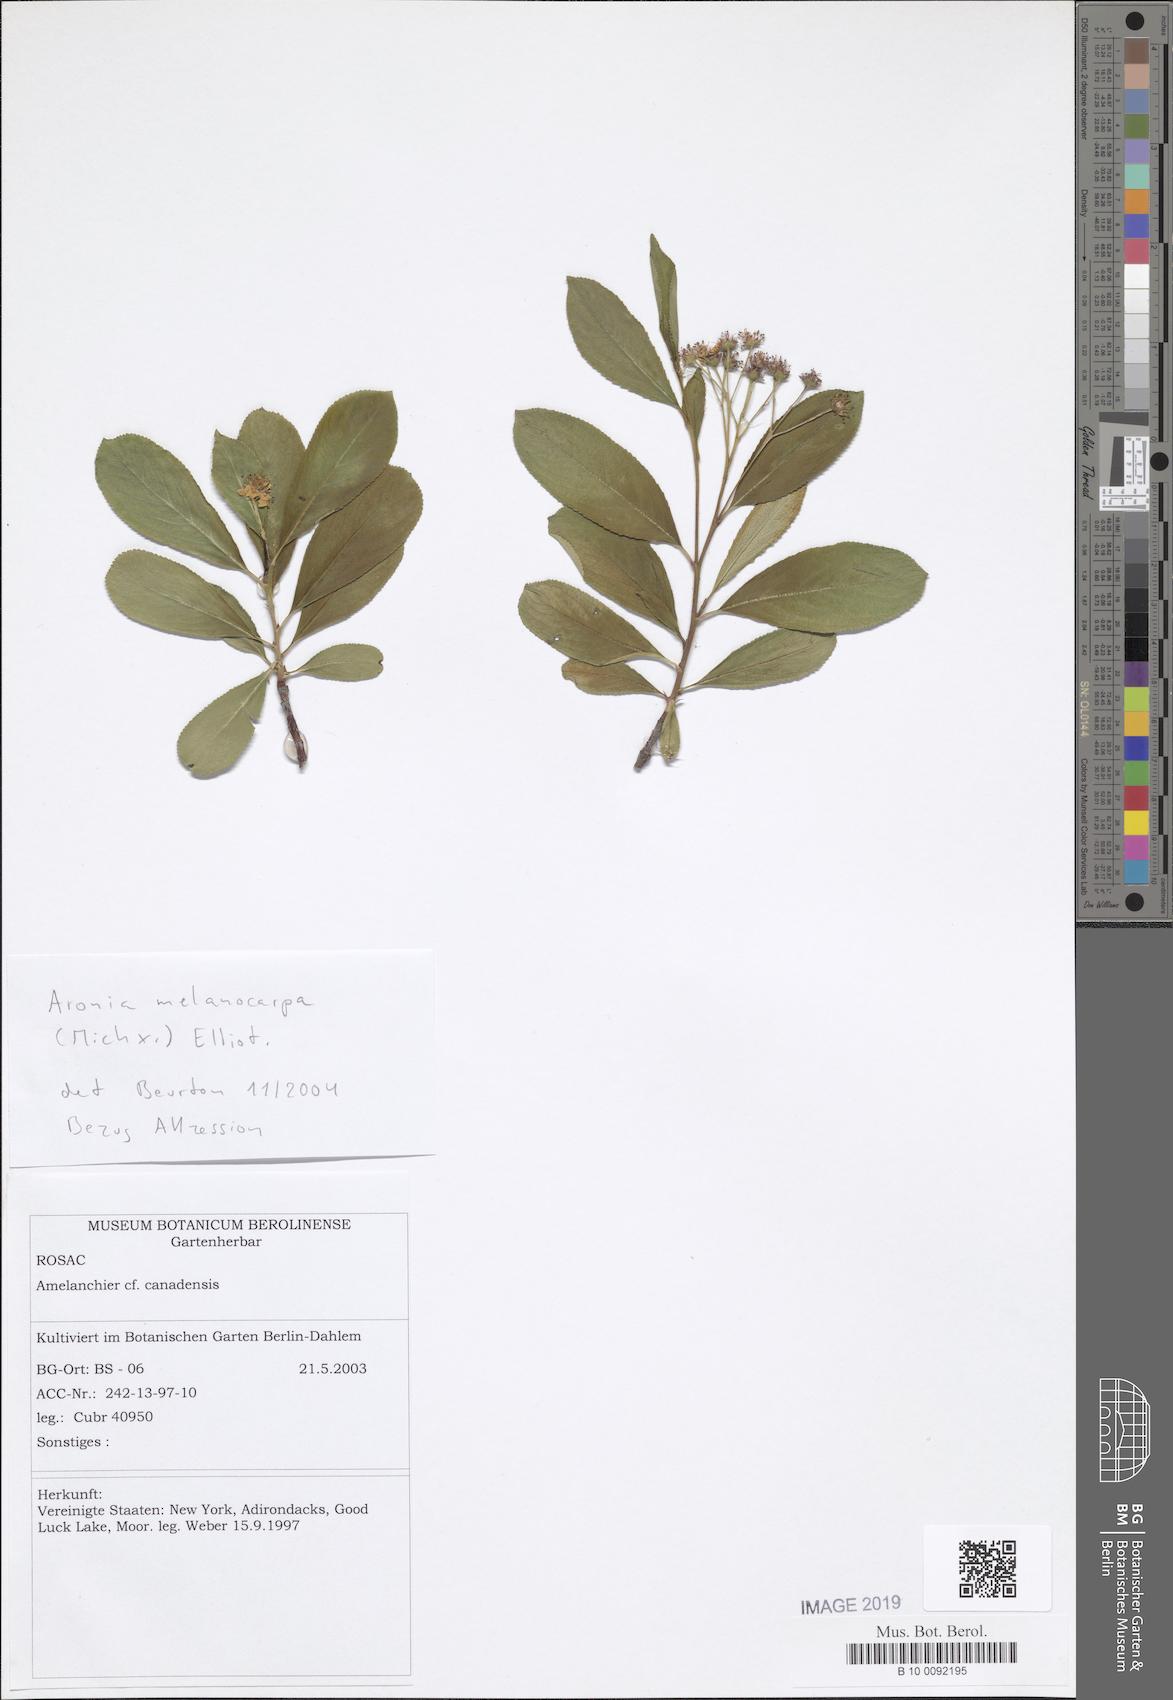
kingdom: Plantae
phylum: Tracheophyta
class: Magnoliopsida
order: Rosales
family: Rosaceae
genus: Aronia
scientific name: Aronia melanocarpa
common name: Black chokeberry
